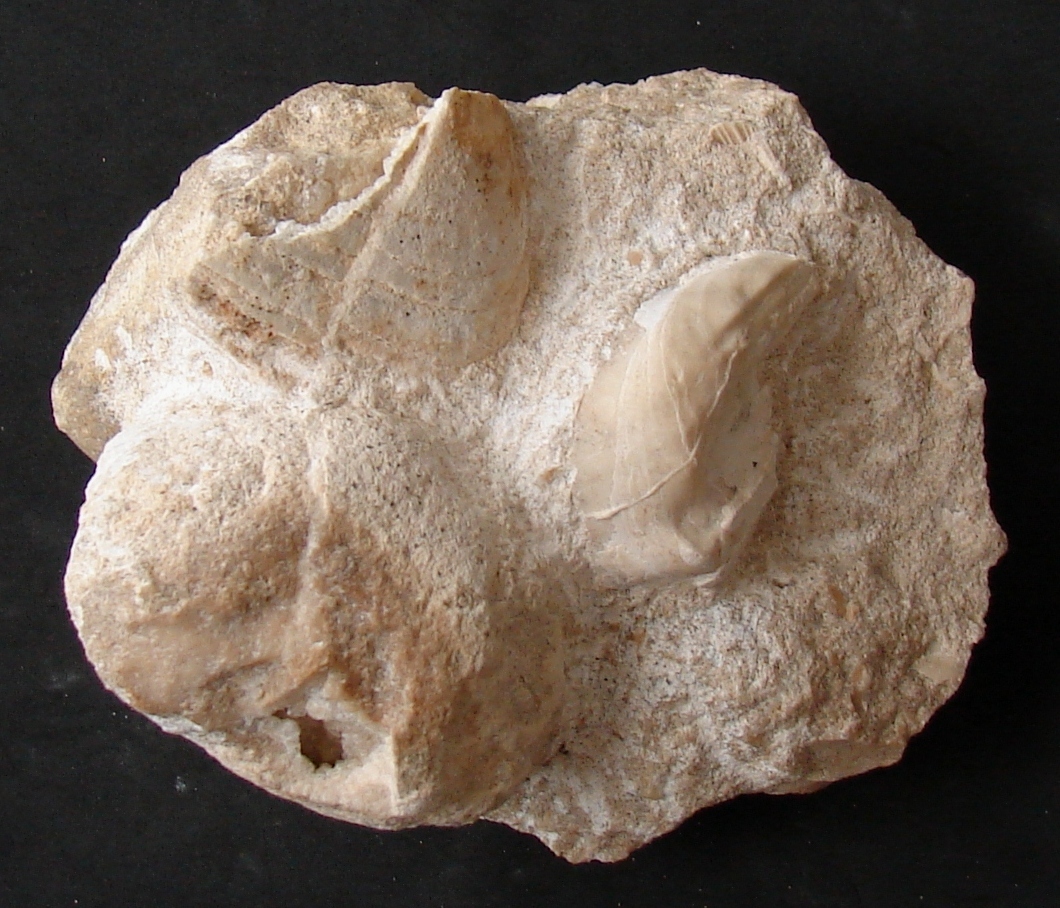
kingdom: Animalia
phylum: Cnidaria
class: Anthozoa
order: Scleractinia
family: Pamiroseriidae
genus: Rhaetiastraea
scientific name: Rhaetiastraea
